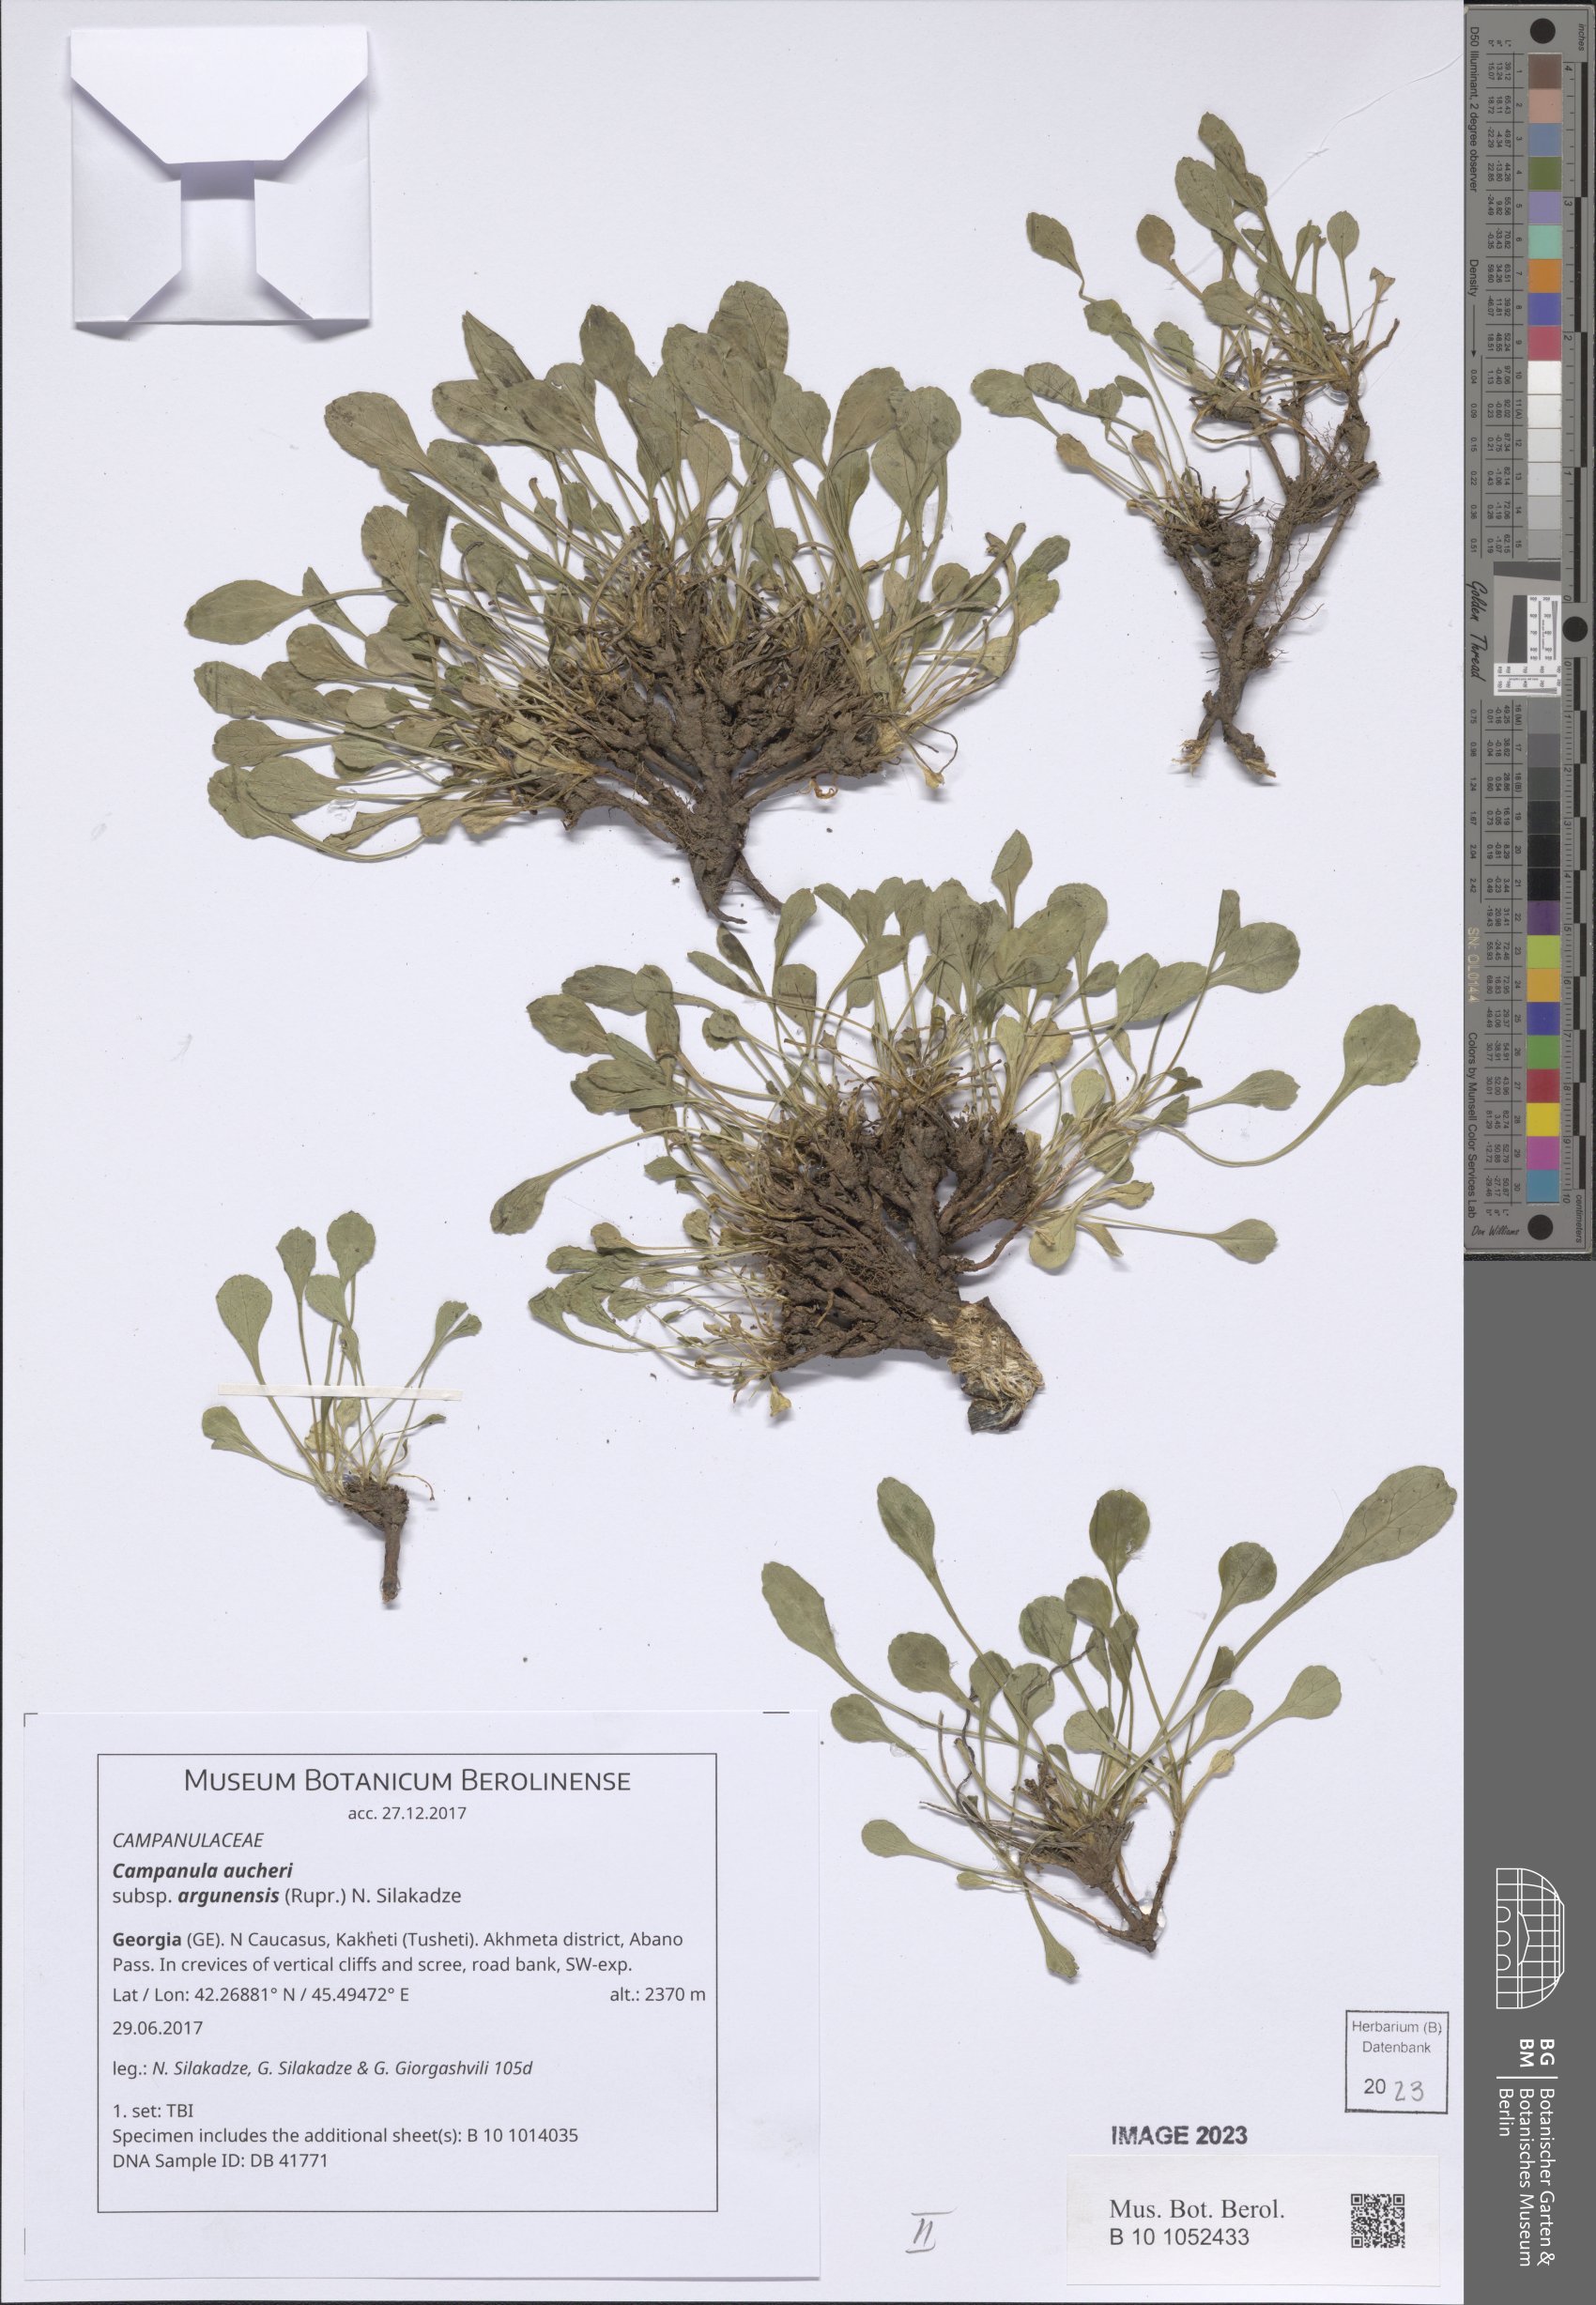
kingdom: Plantae
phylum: Tracheophyta
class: Magnoliopsida
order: Asterales
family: Campanulaceae
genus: Campanula
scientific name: Campanula saxifraga
